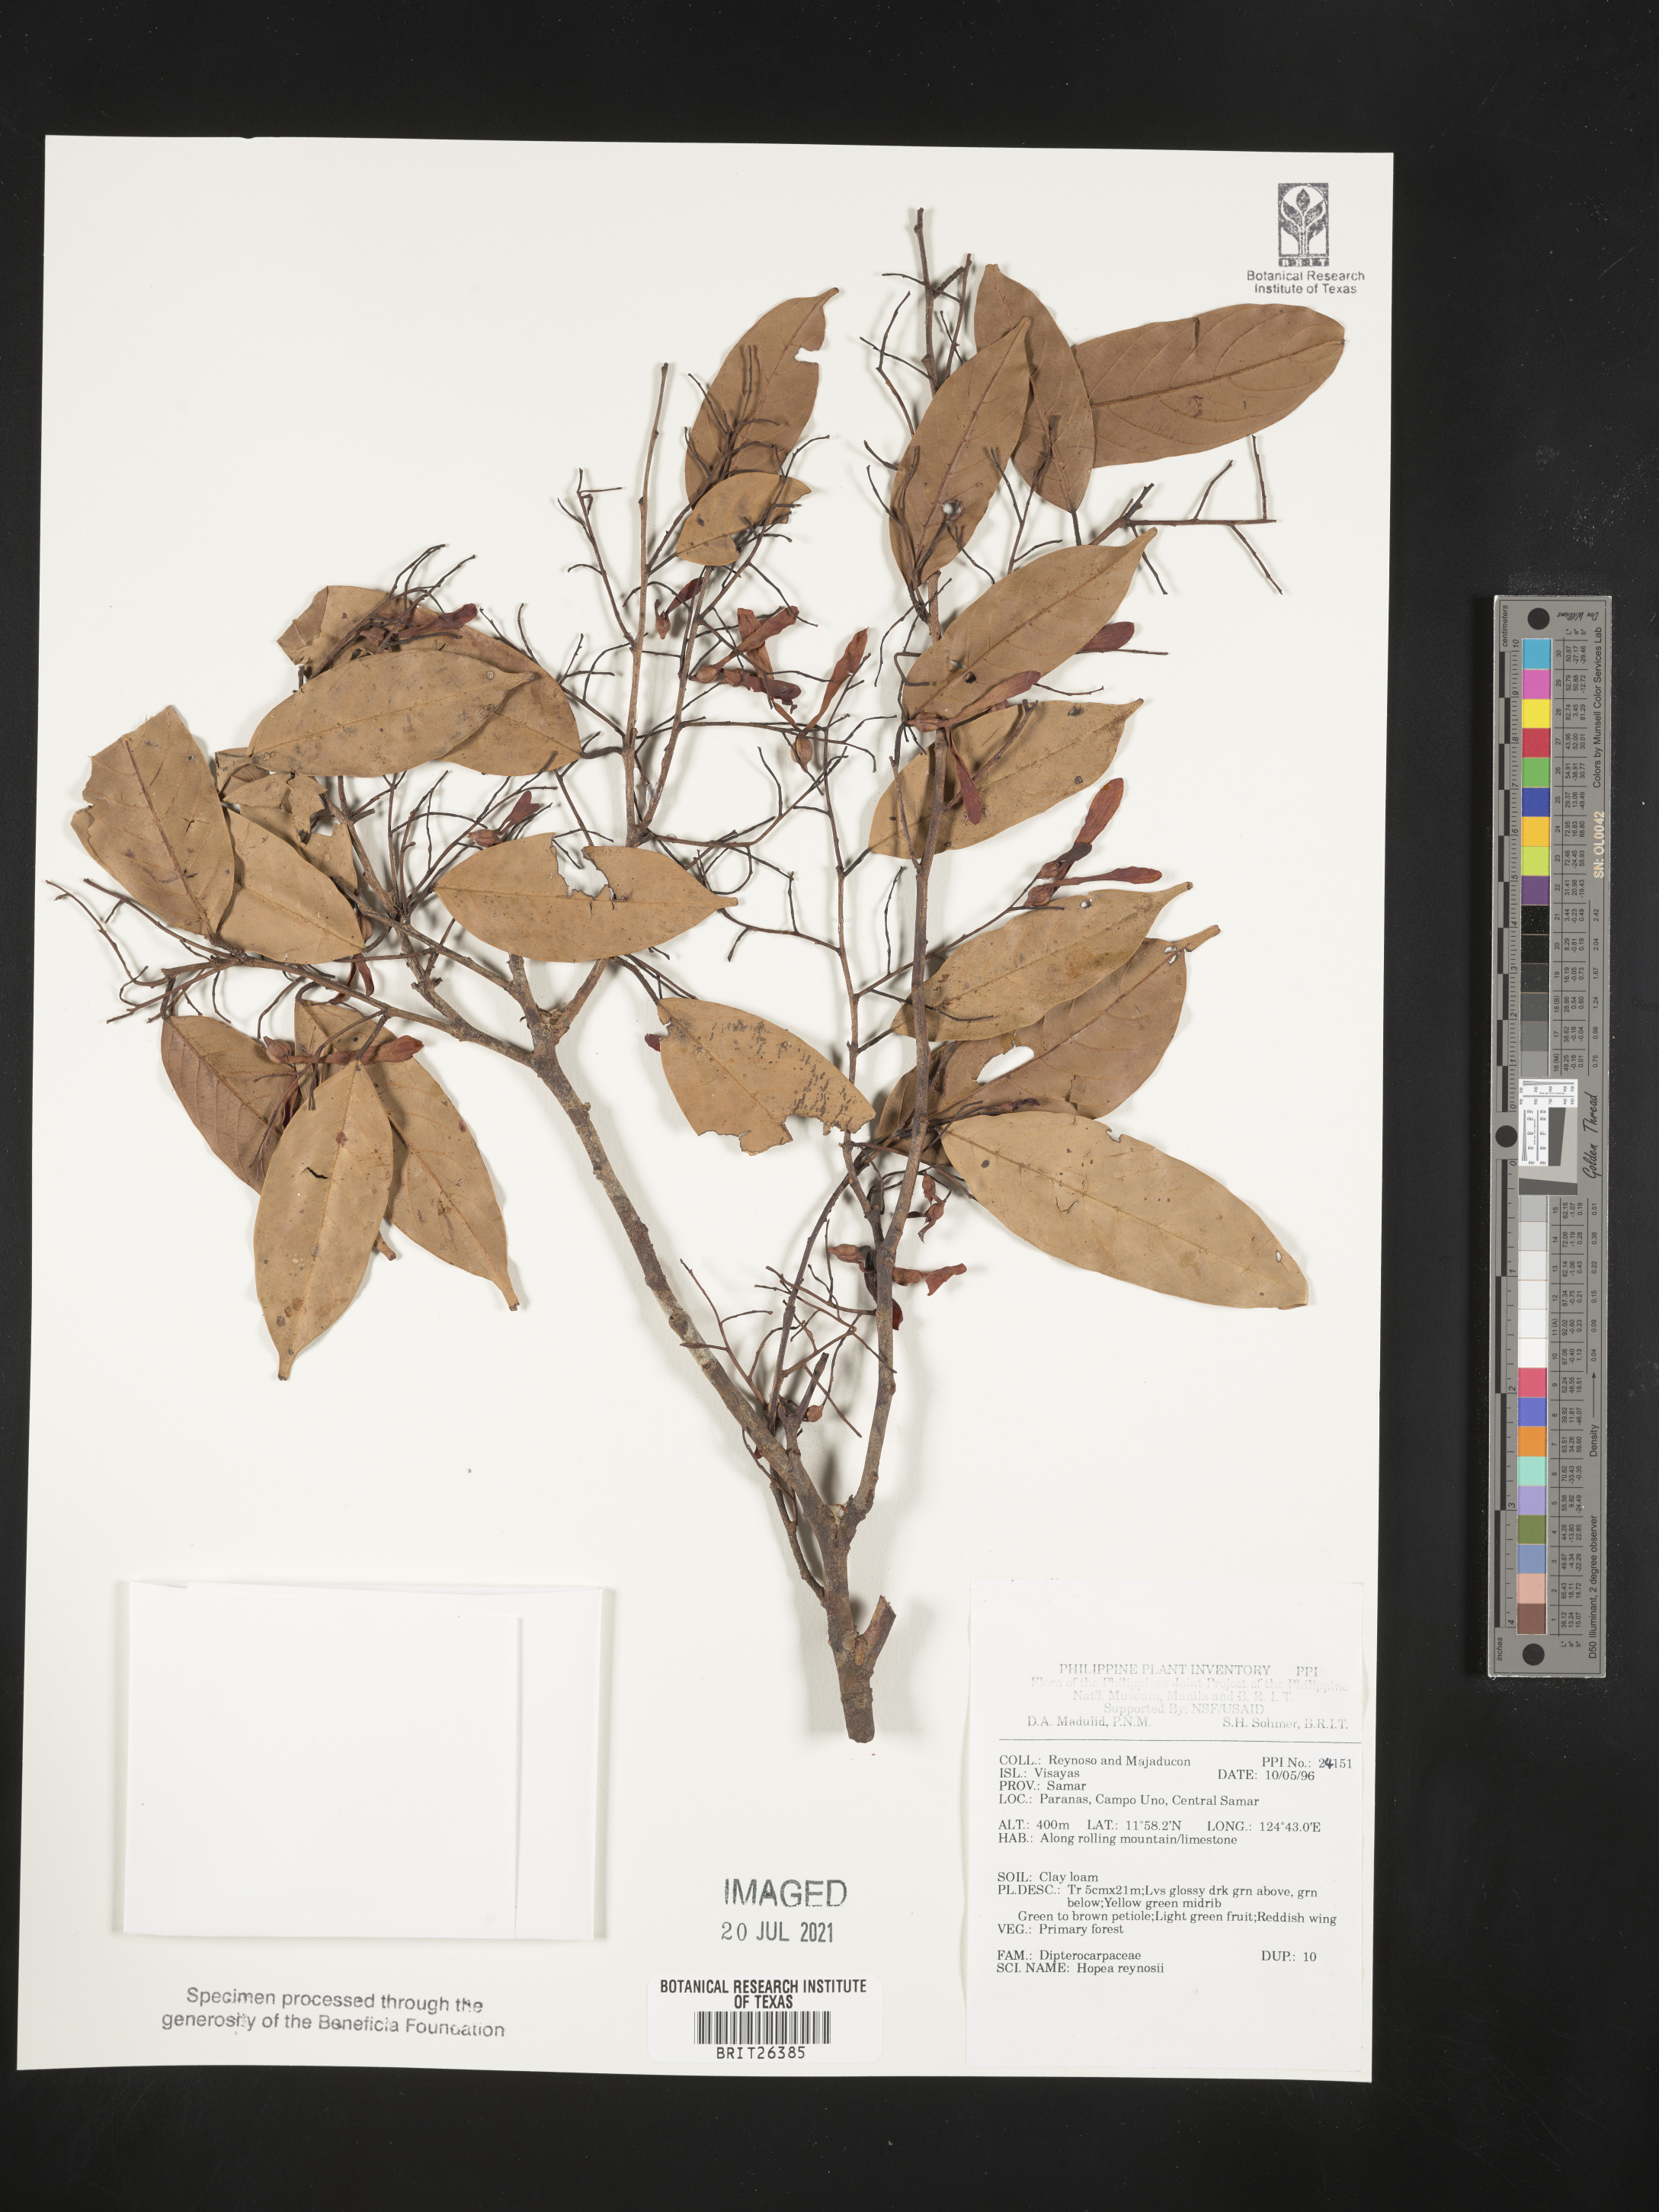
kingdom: Plantae
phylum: Tracheophyta
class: Magnoliopsida
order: Malvales
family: Dipterocarpaceae
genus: Hopea
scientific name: Hopea reynosoi
